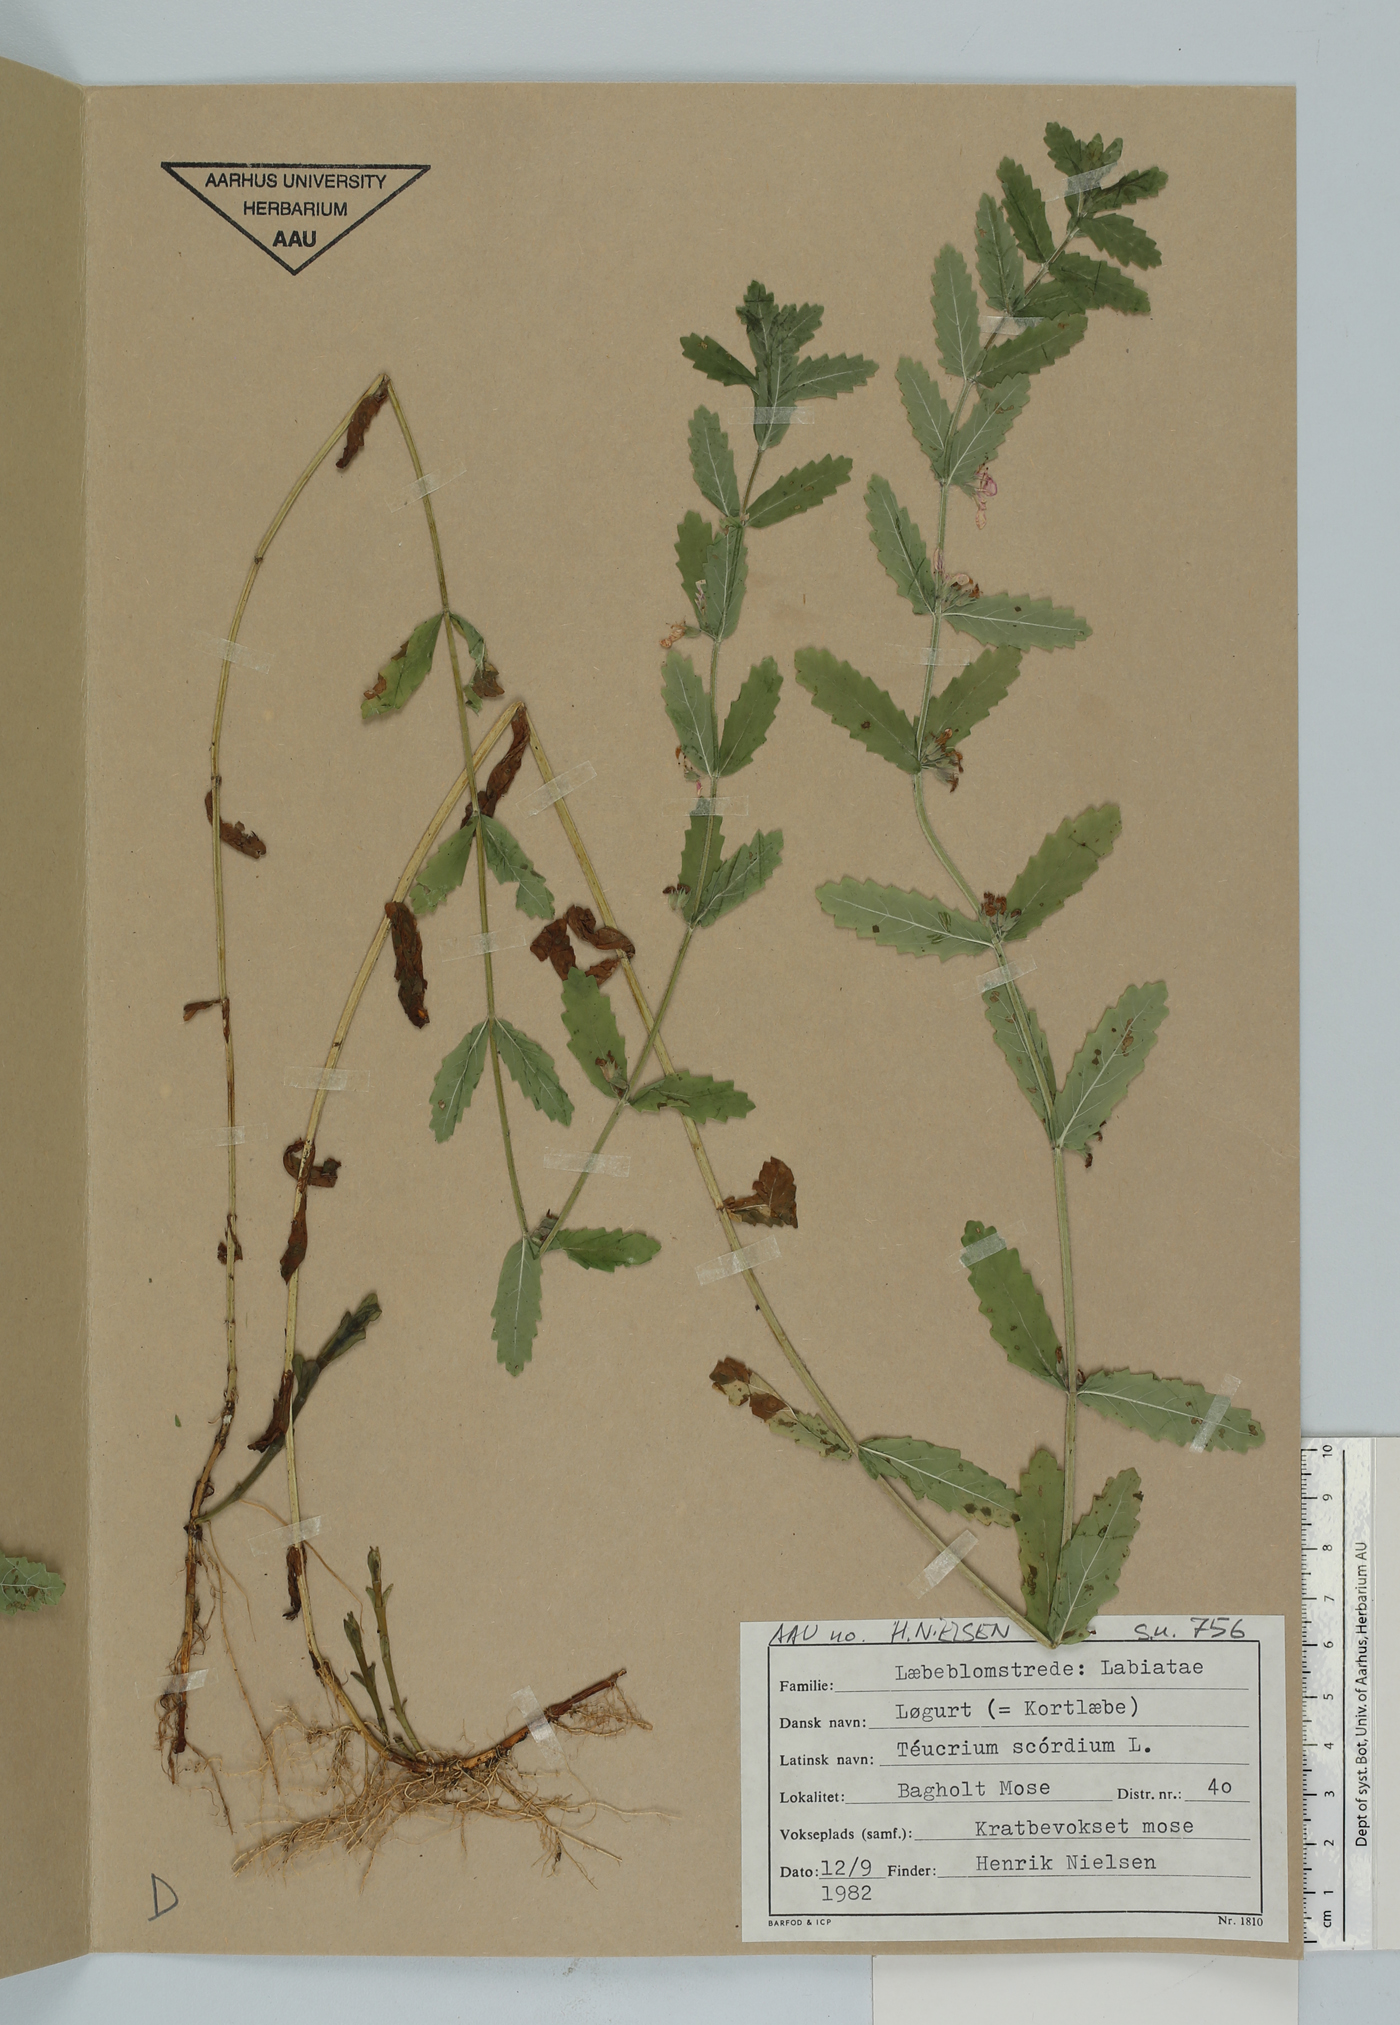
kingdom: Plantae
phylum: Tracheophyta
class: Magnoliopsida
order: Lamiales
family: Lamiaceae
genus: Teucrium
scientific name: Teucrium scordium
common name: Water germander
